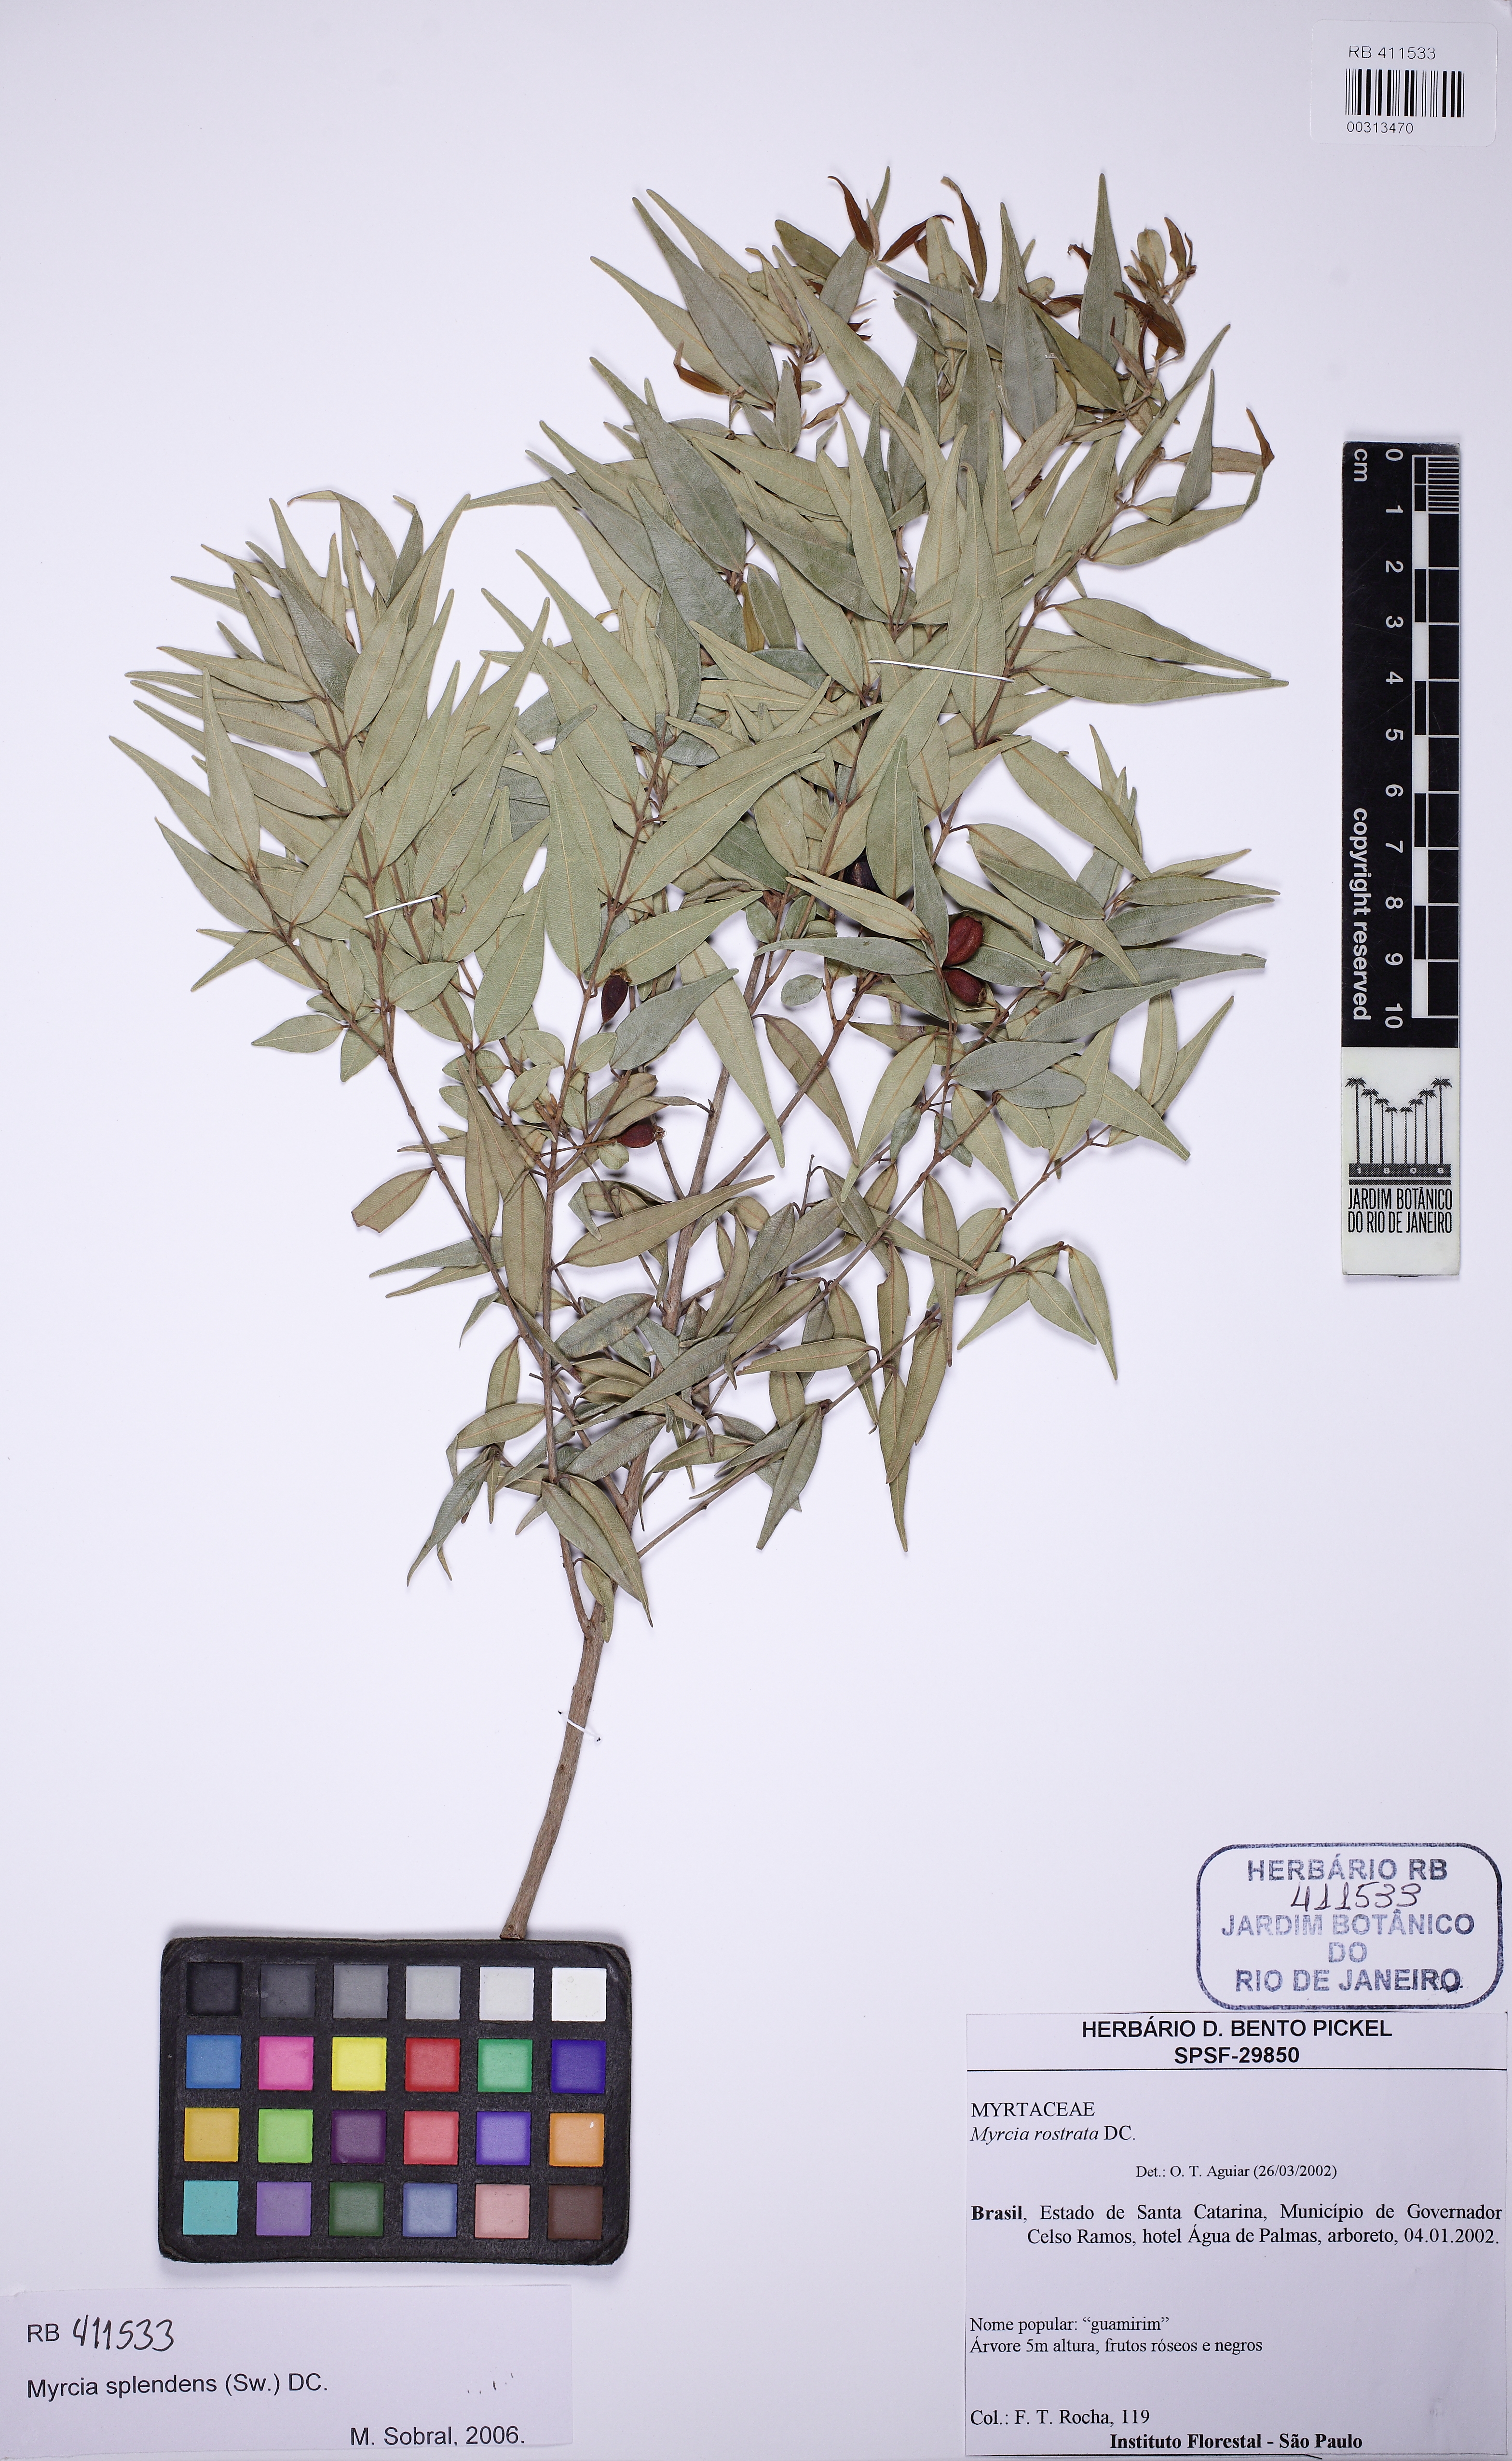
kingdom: Plantae
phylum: Tracheophyta
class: Magnoliopsida
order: Myrtales
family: Myrtaceae
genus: Myrcia
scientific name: Myrcia splendens
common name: Surinam cherry
